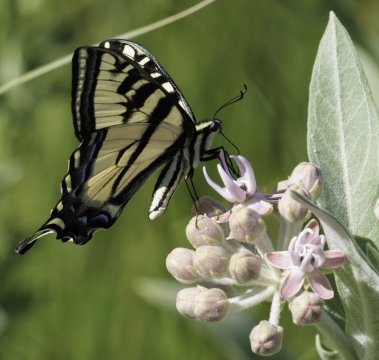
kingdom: Animalia
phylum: Arthropoda
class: Insecta
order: Lepidoptera
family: Papilionidae
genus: Pterourus
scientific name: Pterourus rutulus
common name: Western Tiger Swallowtail
